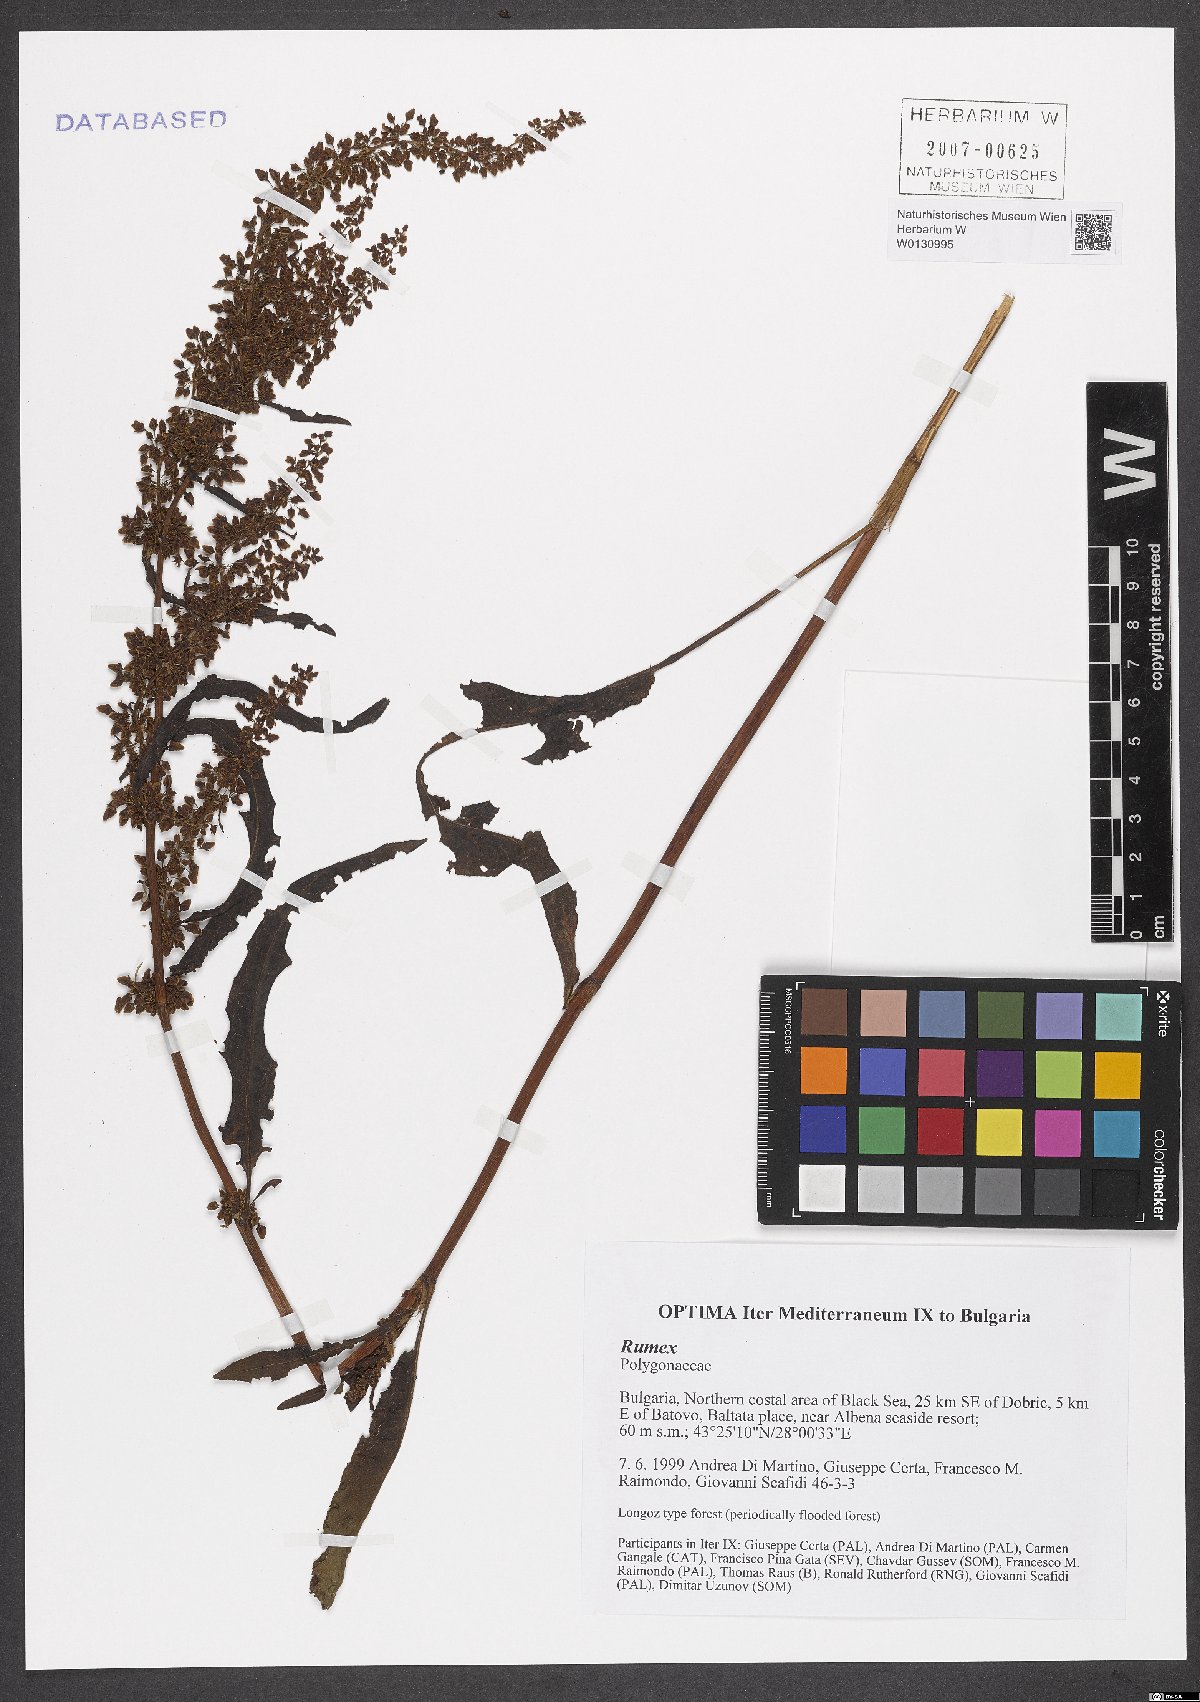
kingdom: Plantae
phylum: Tracheophyta
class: Magnoliopsida
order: Caryophyllales
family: Polygonaceae
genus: Rumex
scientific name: Rumex
